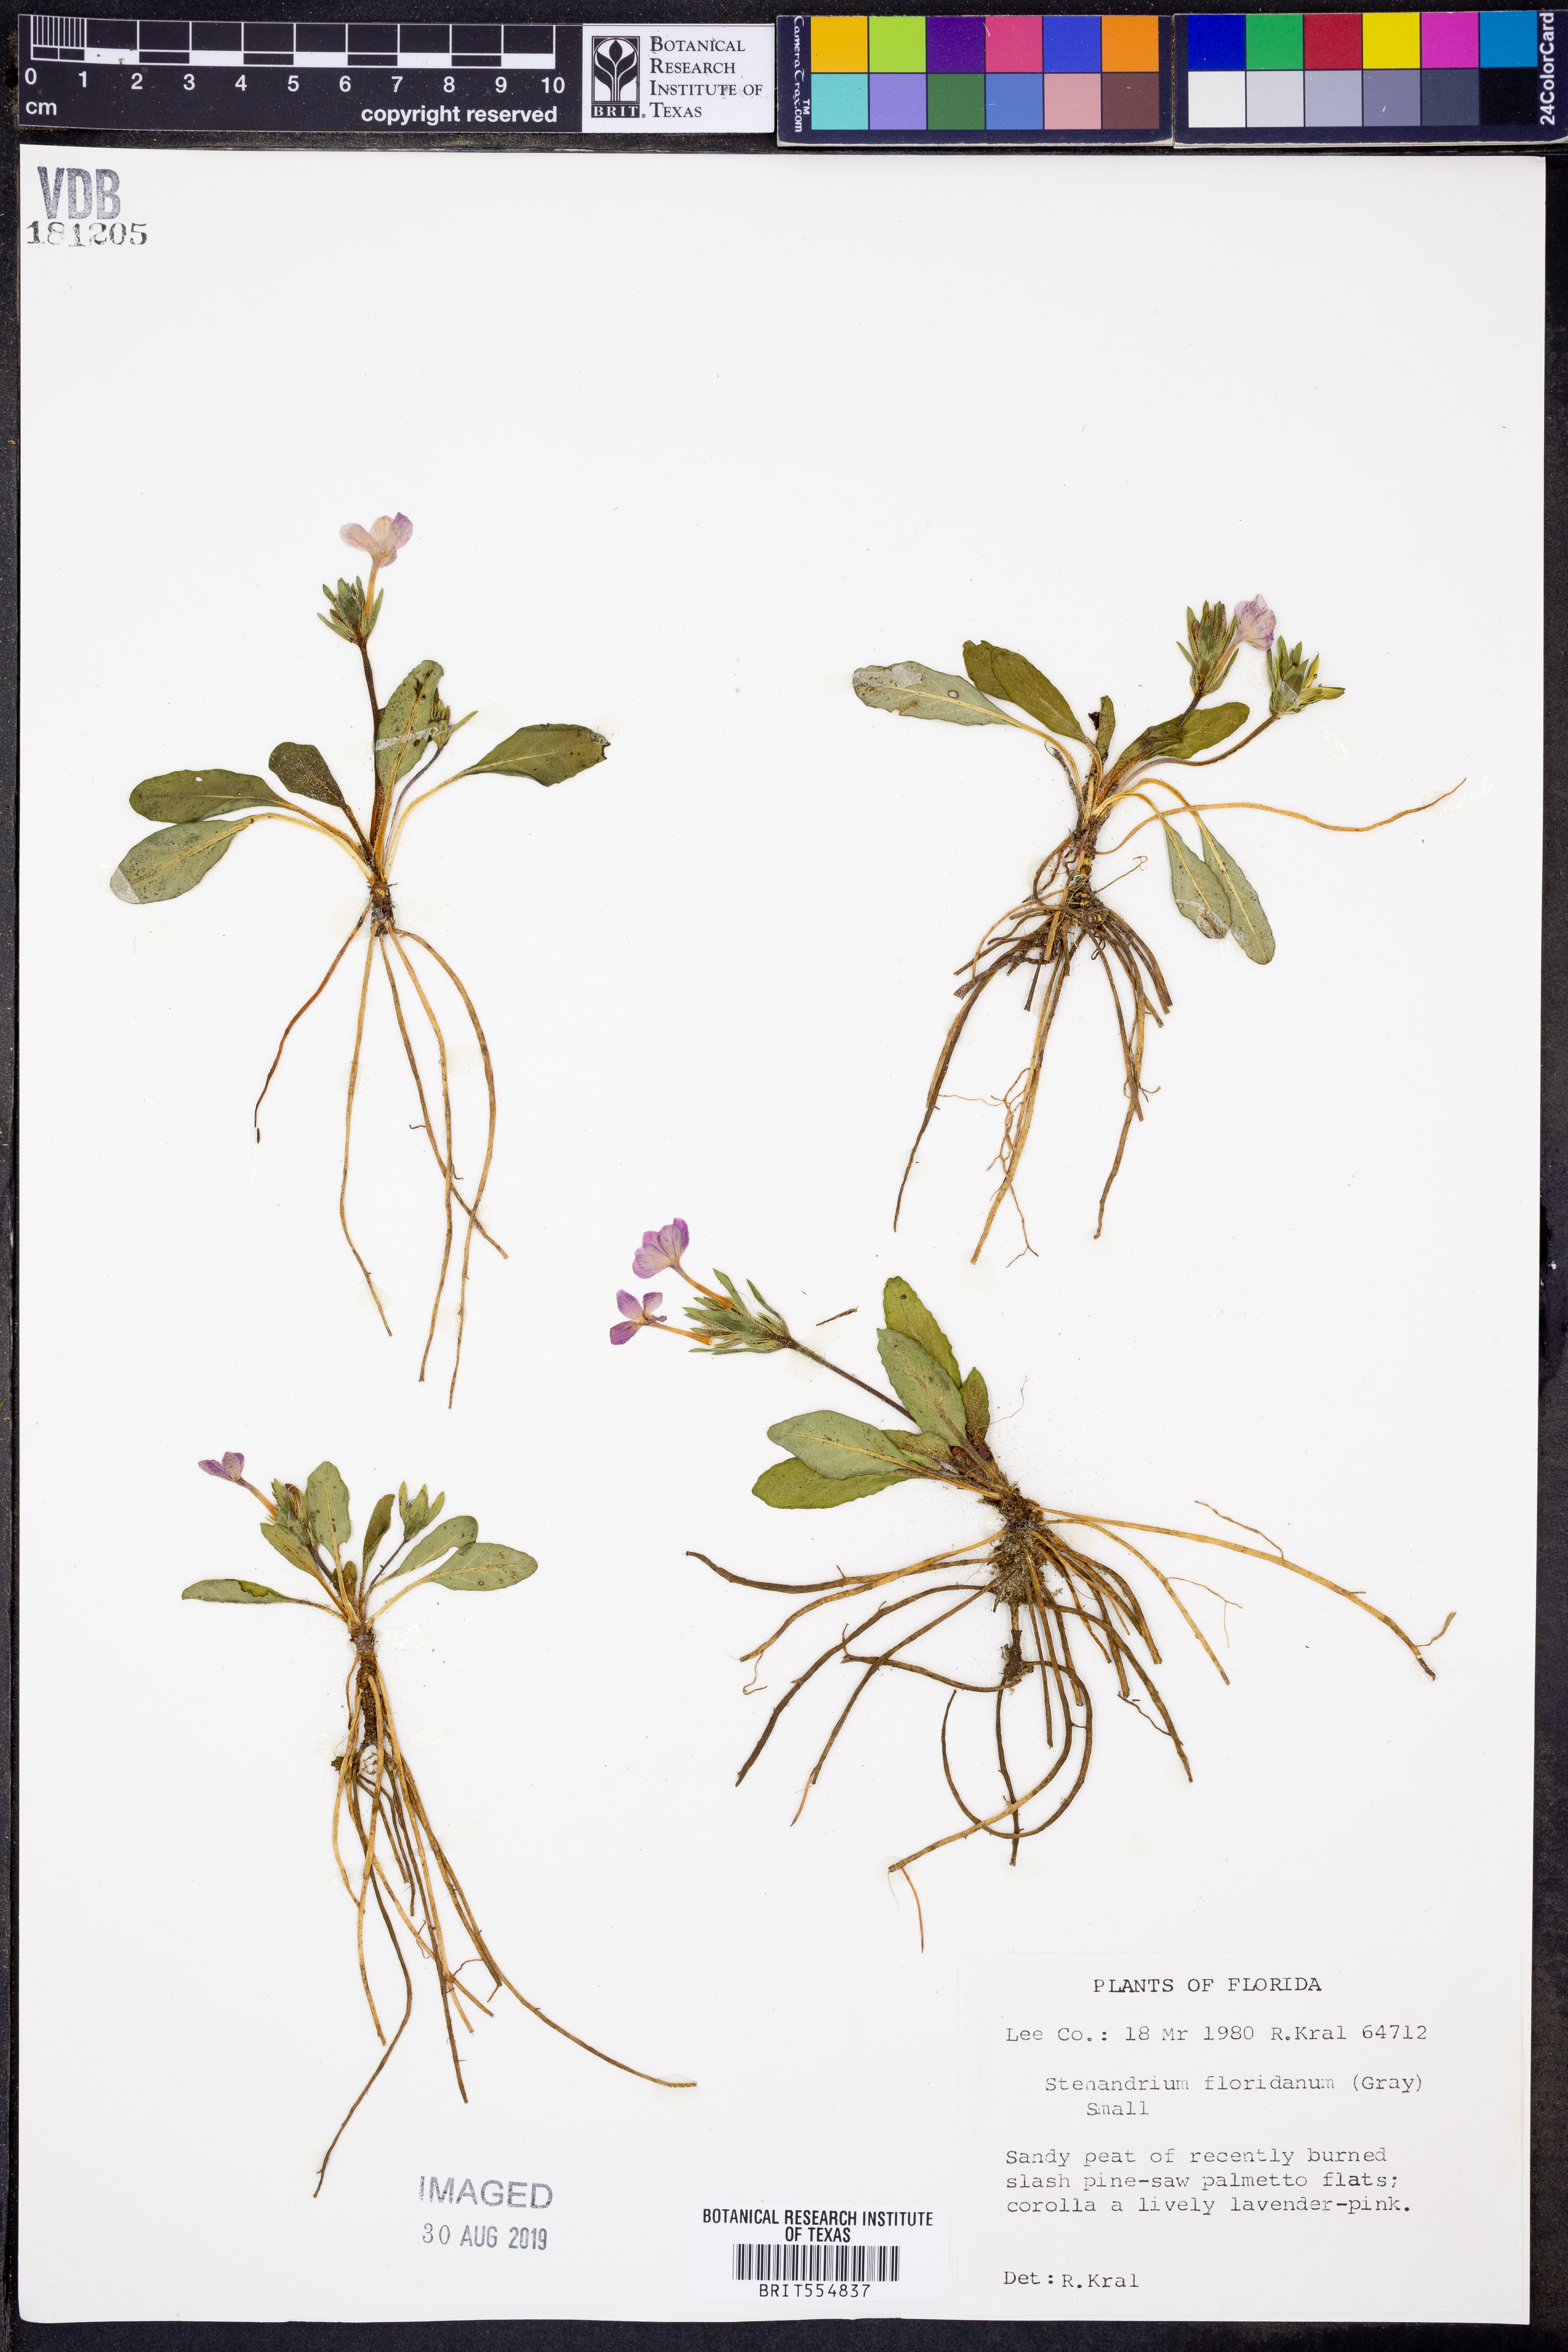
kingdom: Plantae
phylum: Tracheophyta
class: Magnoliopsida
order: Lamiales
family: Acanthaceae
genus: Stenandrium
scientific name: Stenandrium dulce
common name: Pinklet
